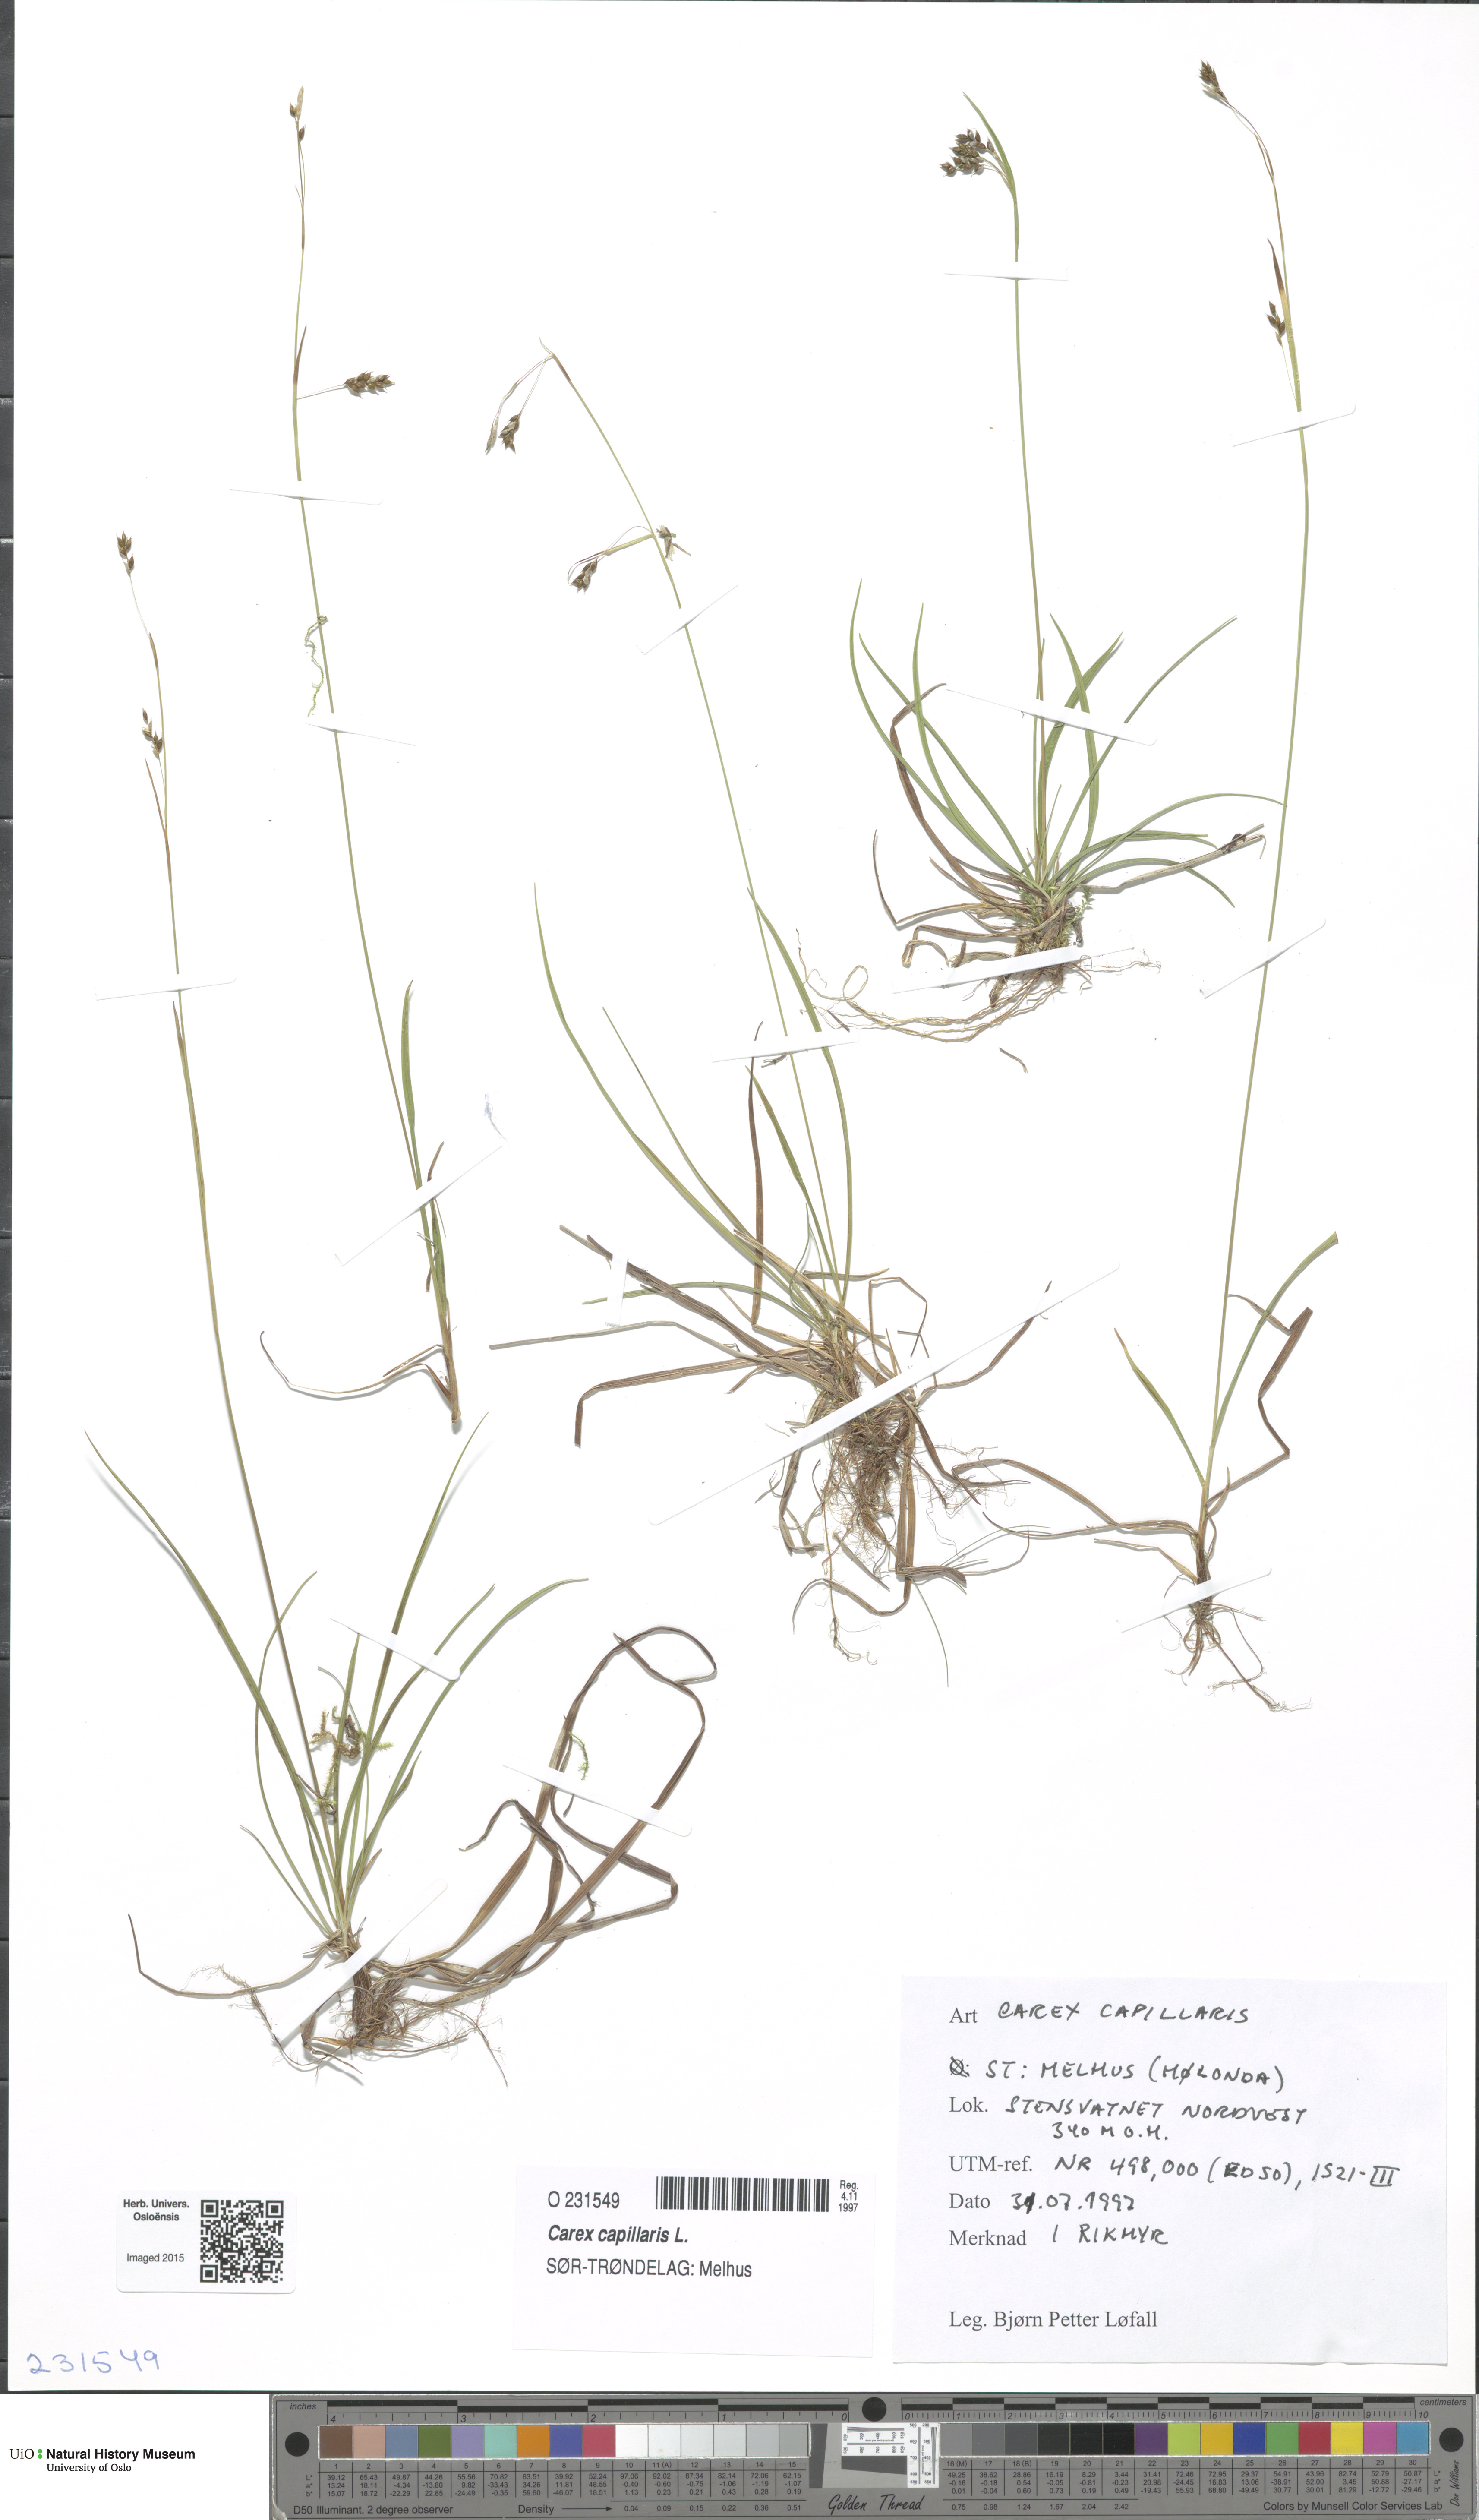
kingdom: Plantae
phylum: Tracheophyta
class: Liliopsida
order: Poales
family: Cyperaceae
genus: Carex
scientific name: Carex capillaris
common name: Hair sedge
